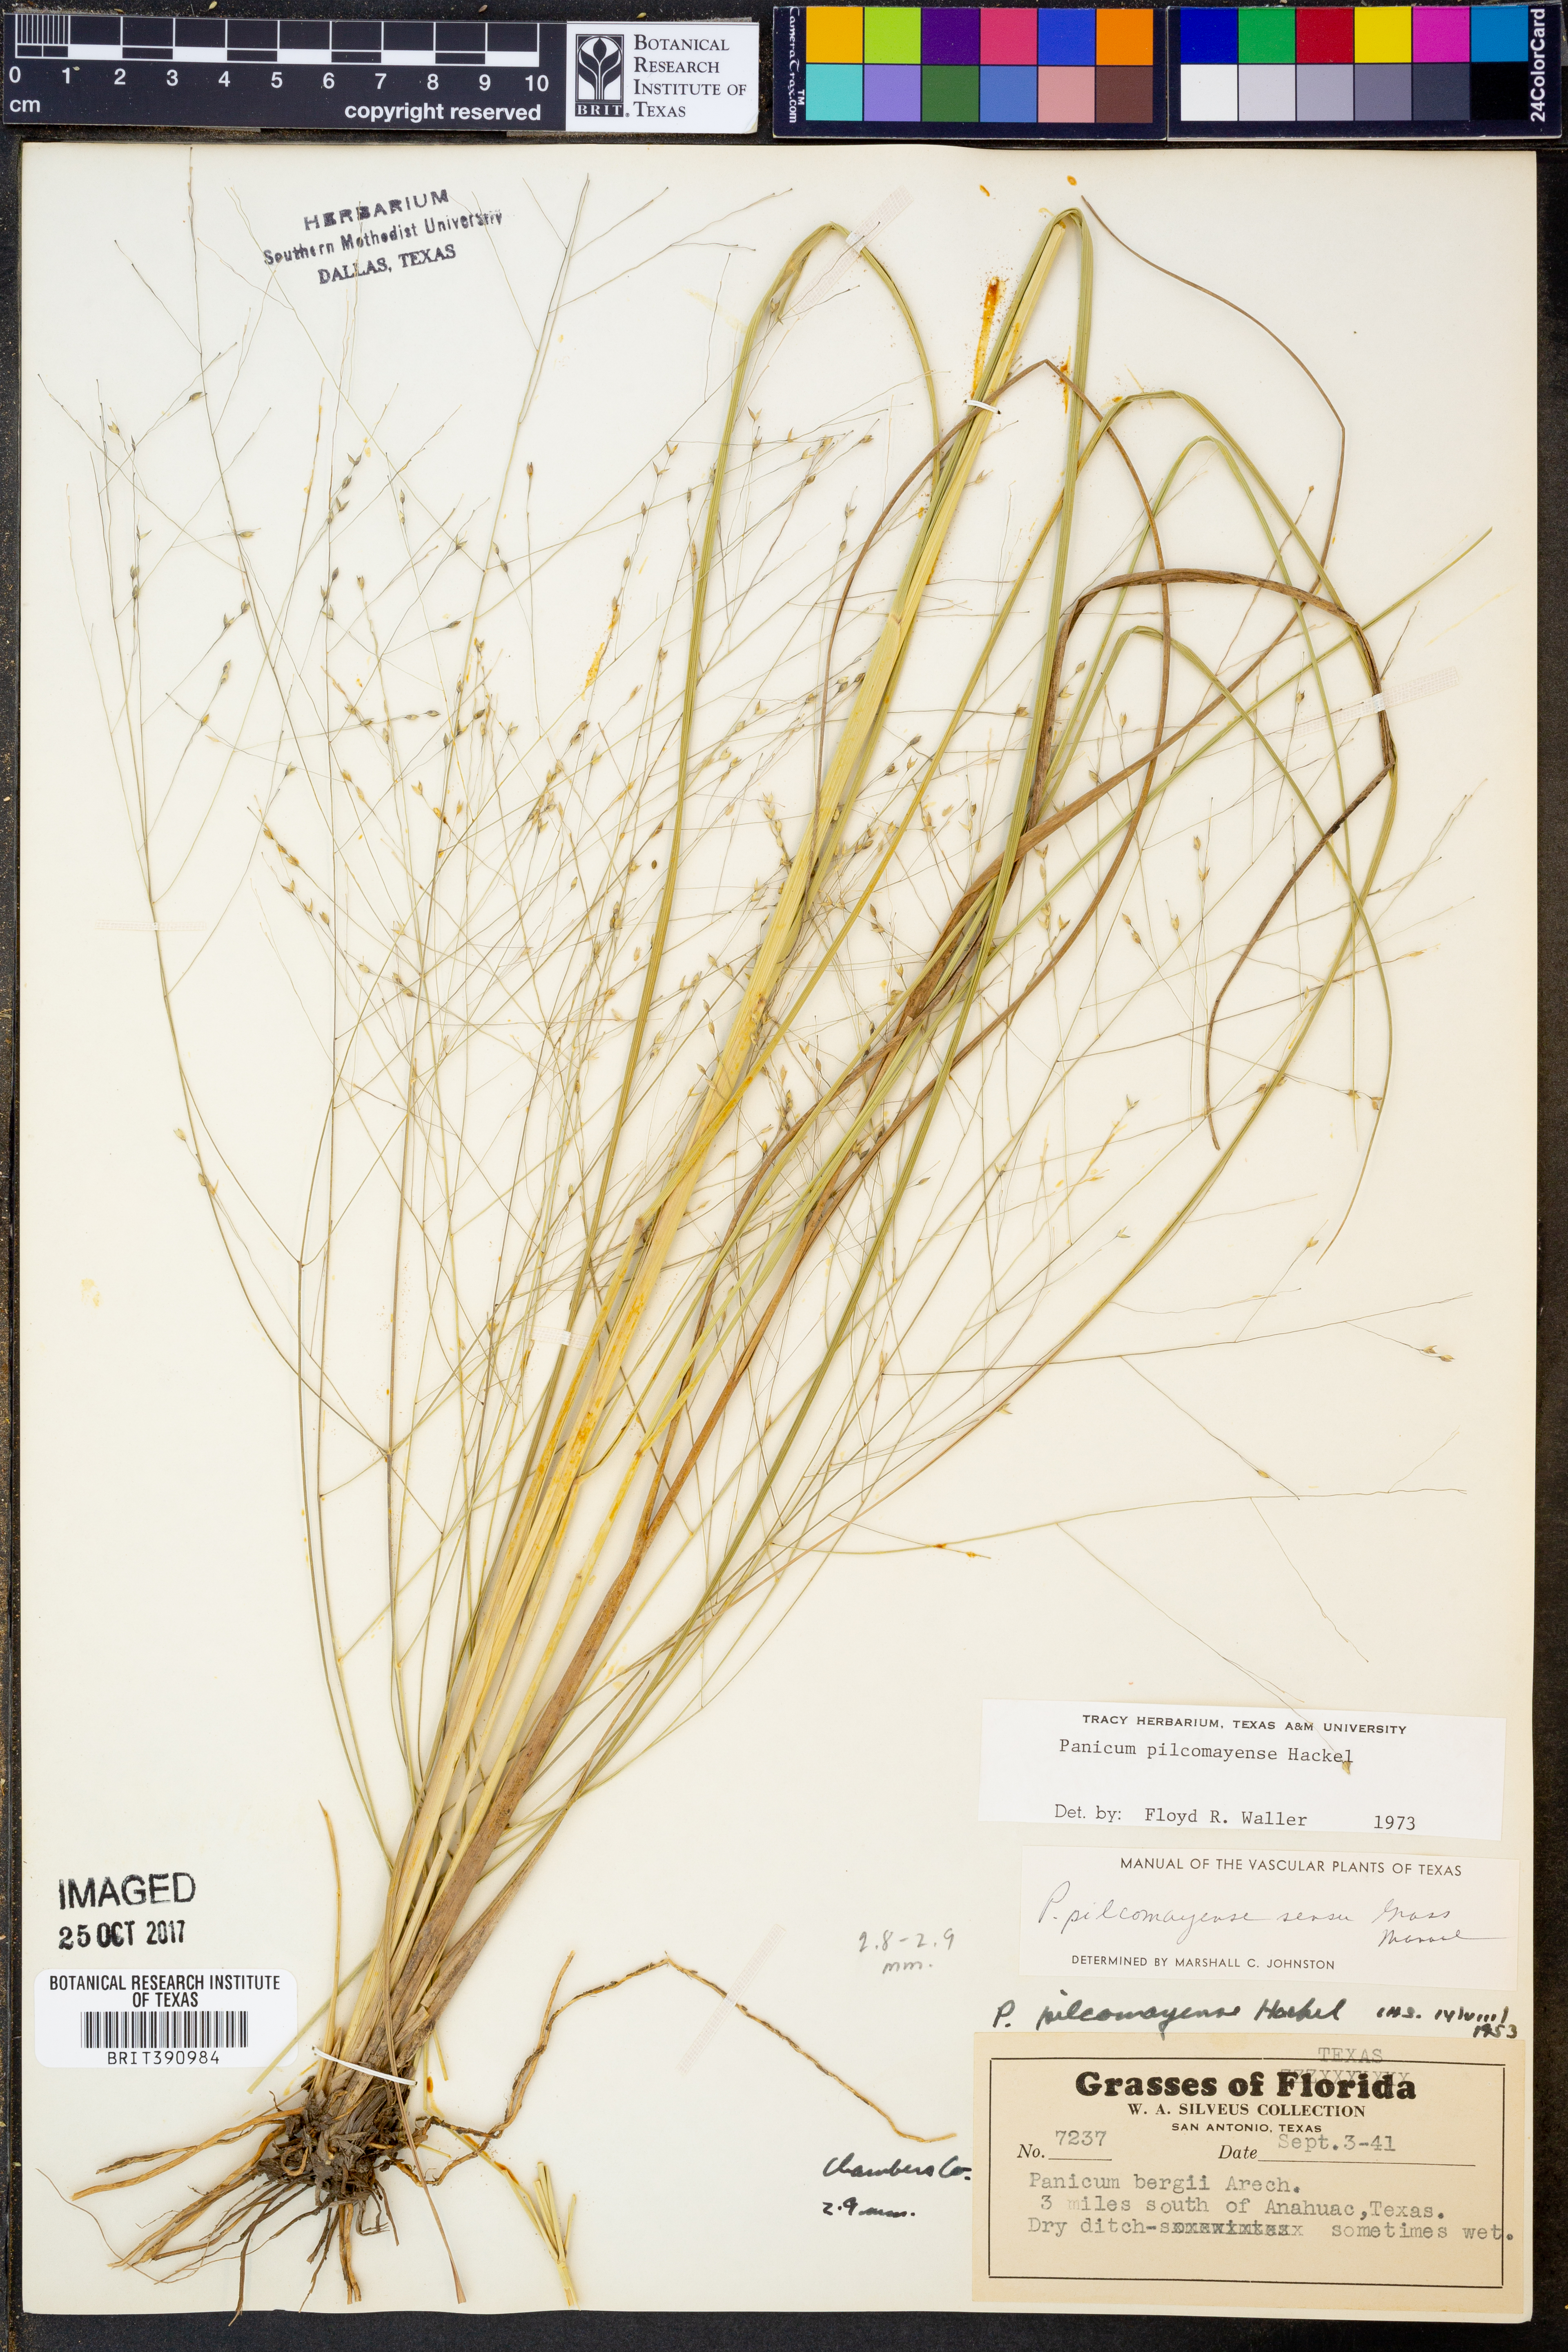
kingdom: Plantae
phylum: Tracheophyta
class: Liliopsida
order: Poales
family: Poaceae
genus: Panicum
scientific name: Panicum bergii
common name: Berg's panicgrass
